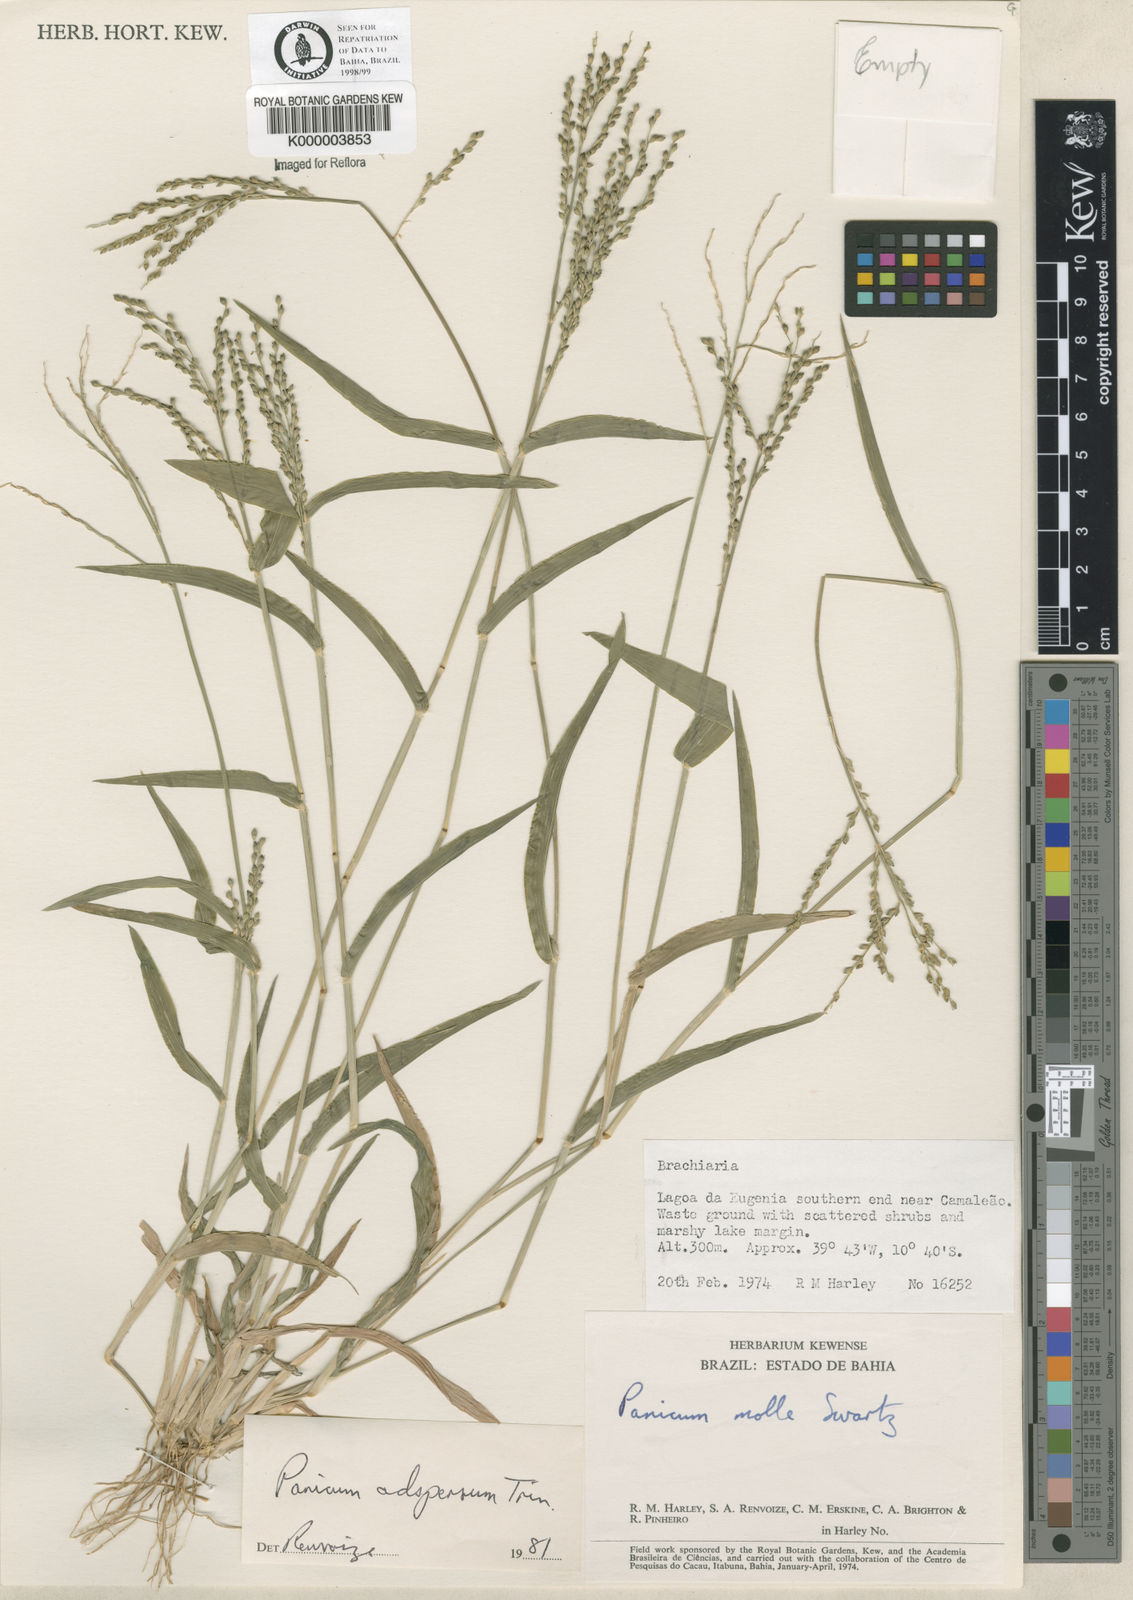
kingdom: Plantae
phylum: Tracheophyta
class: Liliopsida
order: Poales
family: Poaceae
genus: Urochloa
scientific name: Urochloa adspersa
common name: Dominican signal grass
